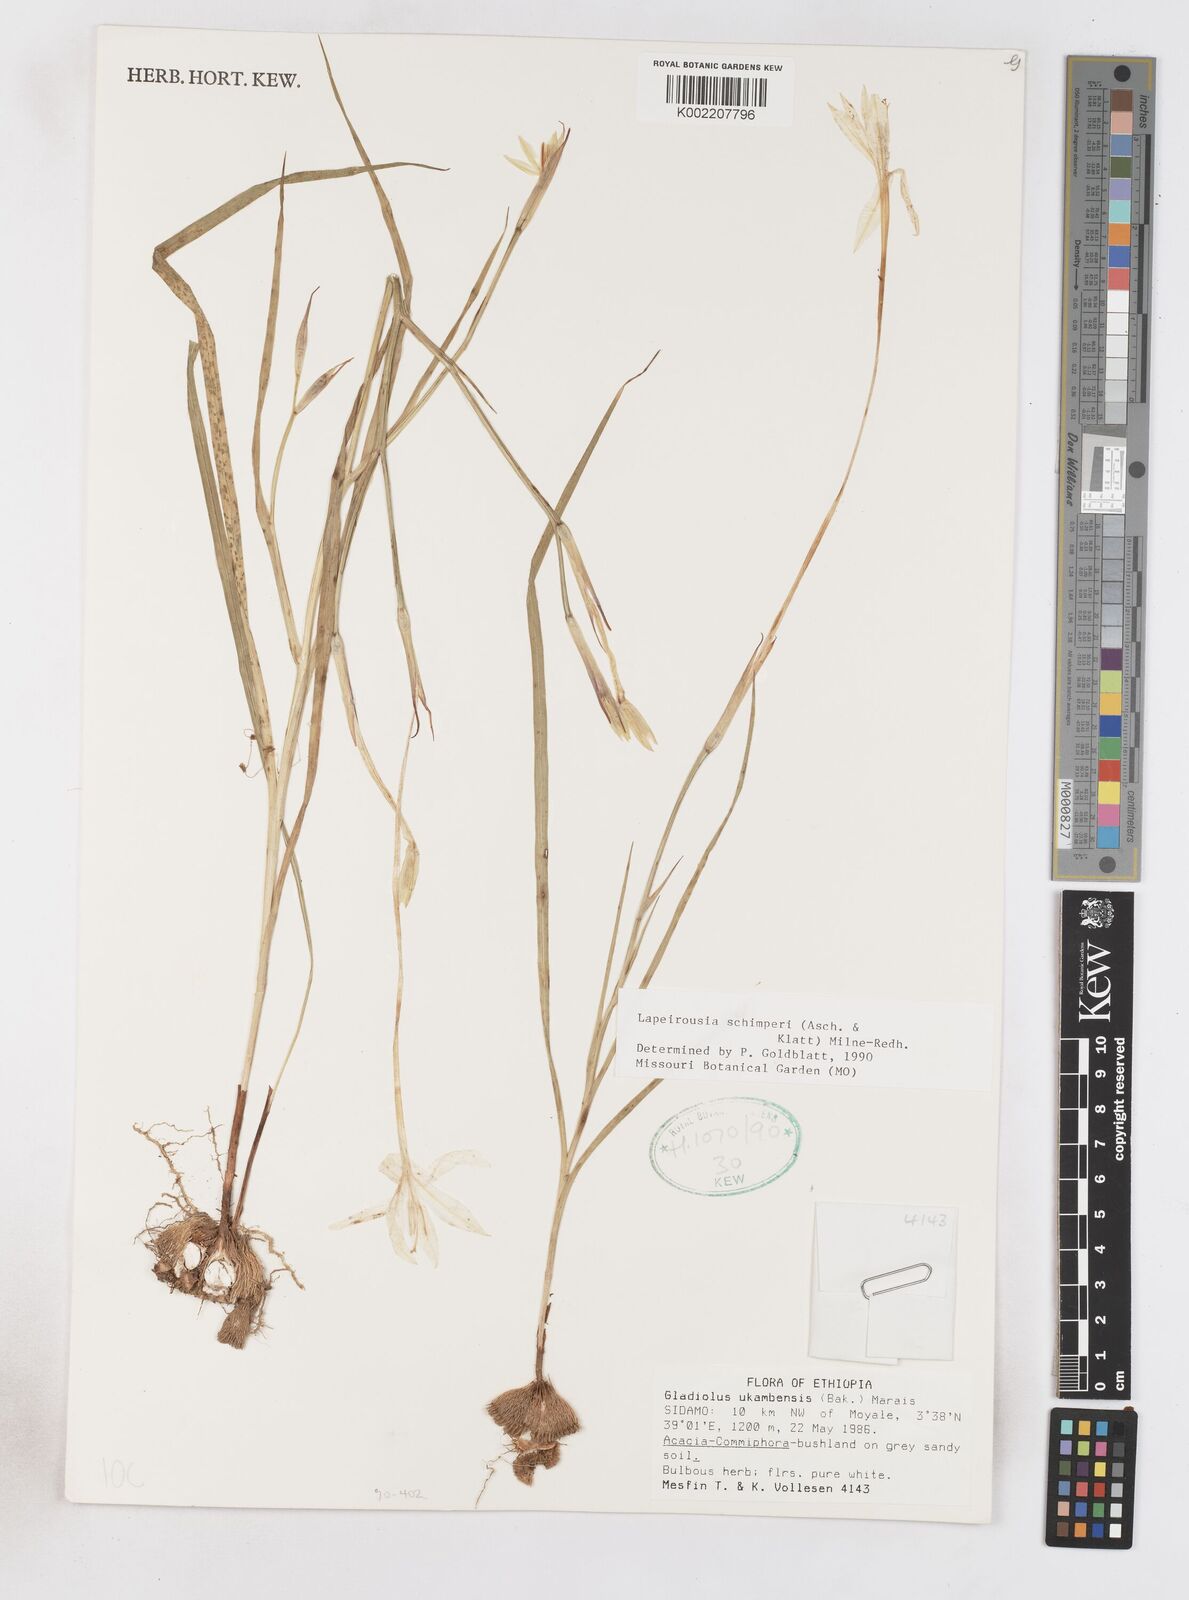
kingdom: Plantae
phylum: Tracheophyta
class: Liliopsida
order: Asparagales
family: Iridaceae
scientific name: Iridaceae
